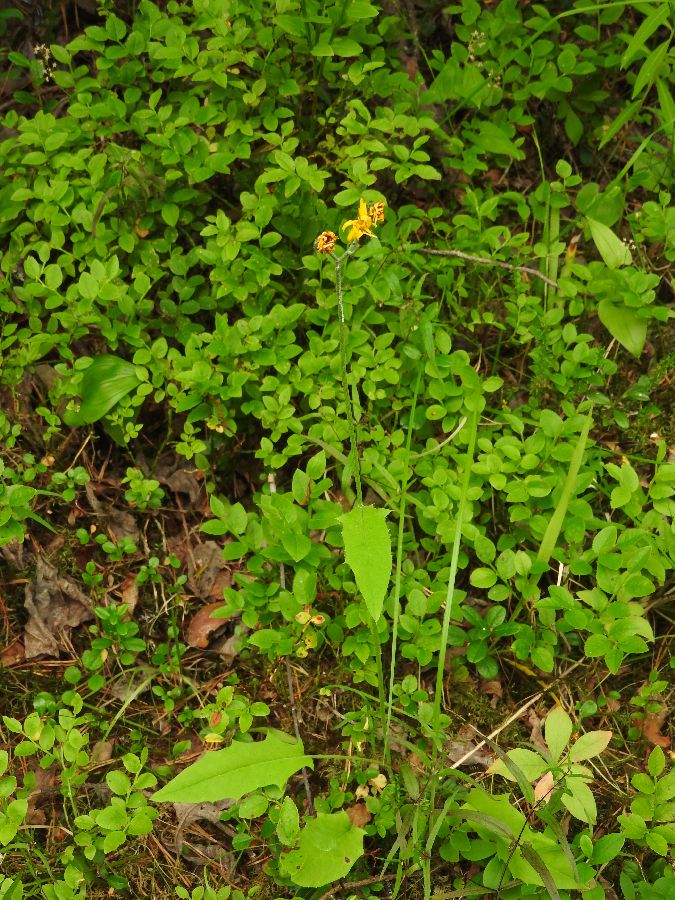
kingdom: Plantae
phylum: Tracheophyta
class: Magnoliopsida
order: Asterales
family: Asteraceae
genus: Hieracium
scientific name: Hieracium murorum
